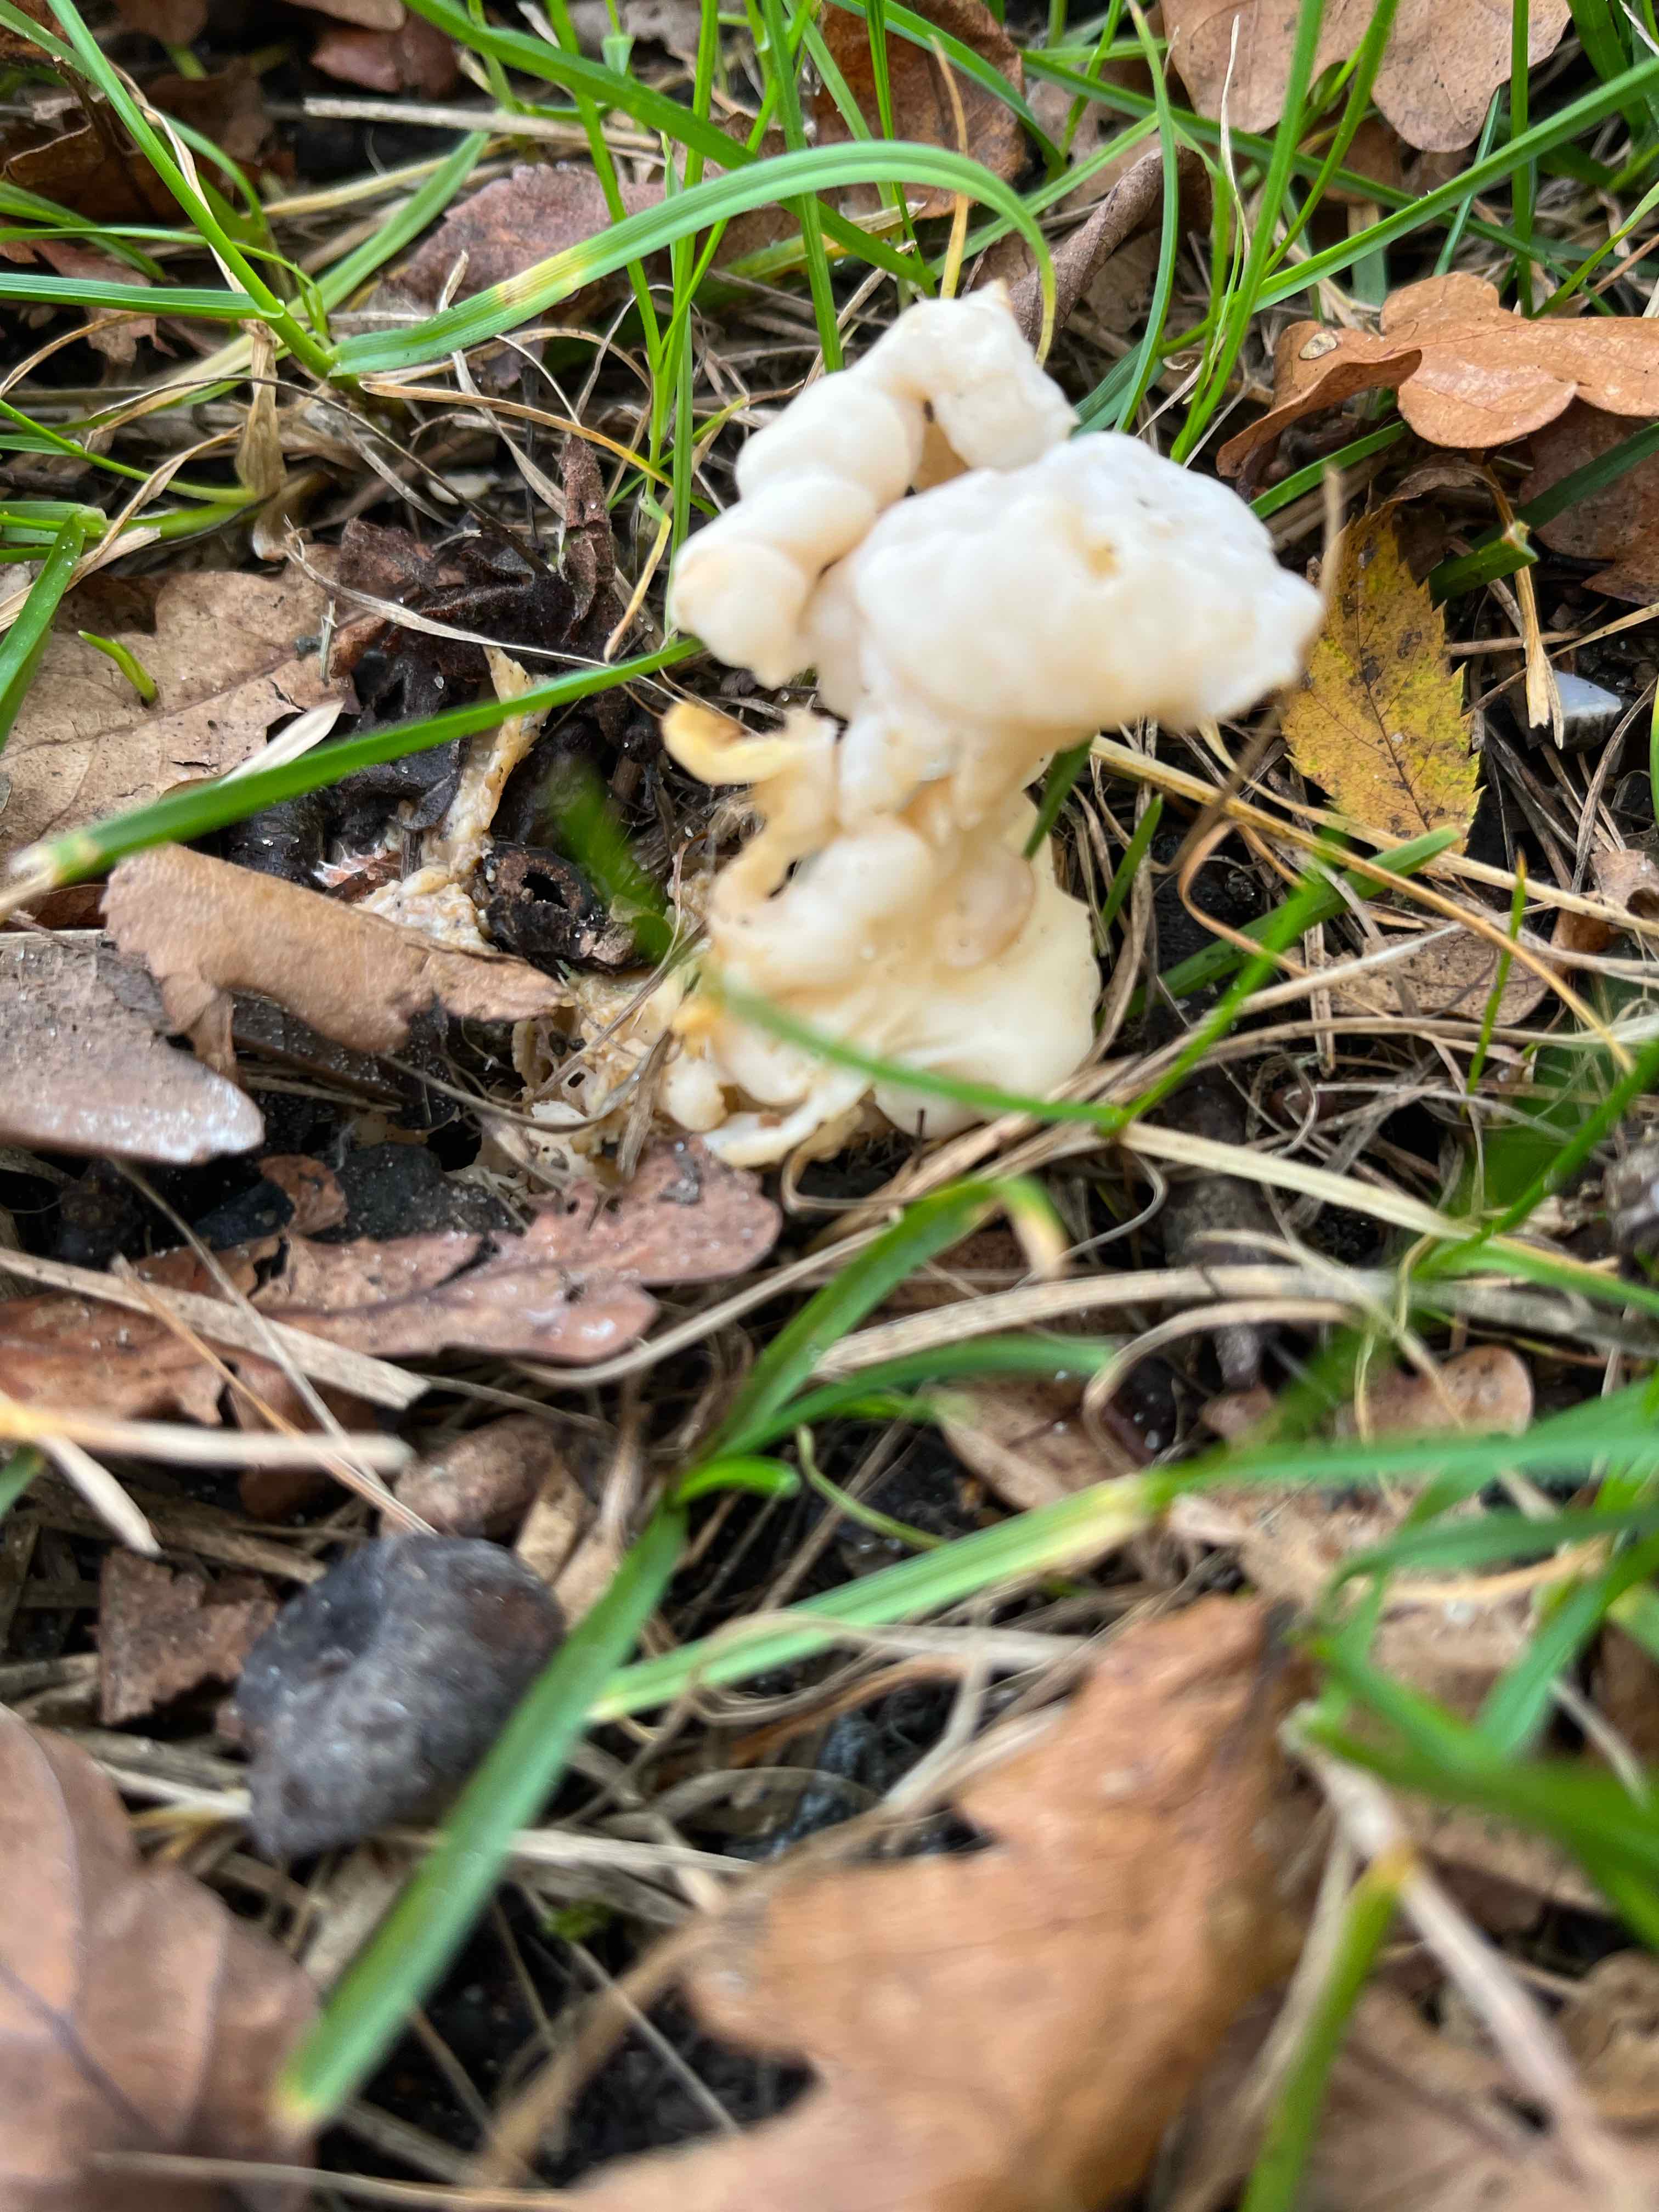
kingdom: Fungi
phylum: Ascomycota
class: Pezizomycetes
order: Pezizales
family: Helvellaceae
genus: Helvella
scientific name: Helvella crispa
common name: kruset foldhat
